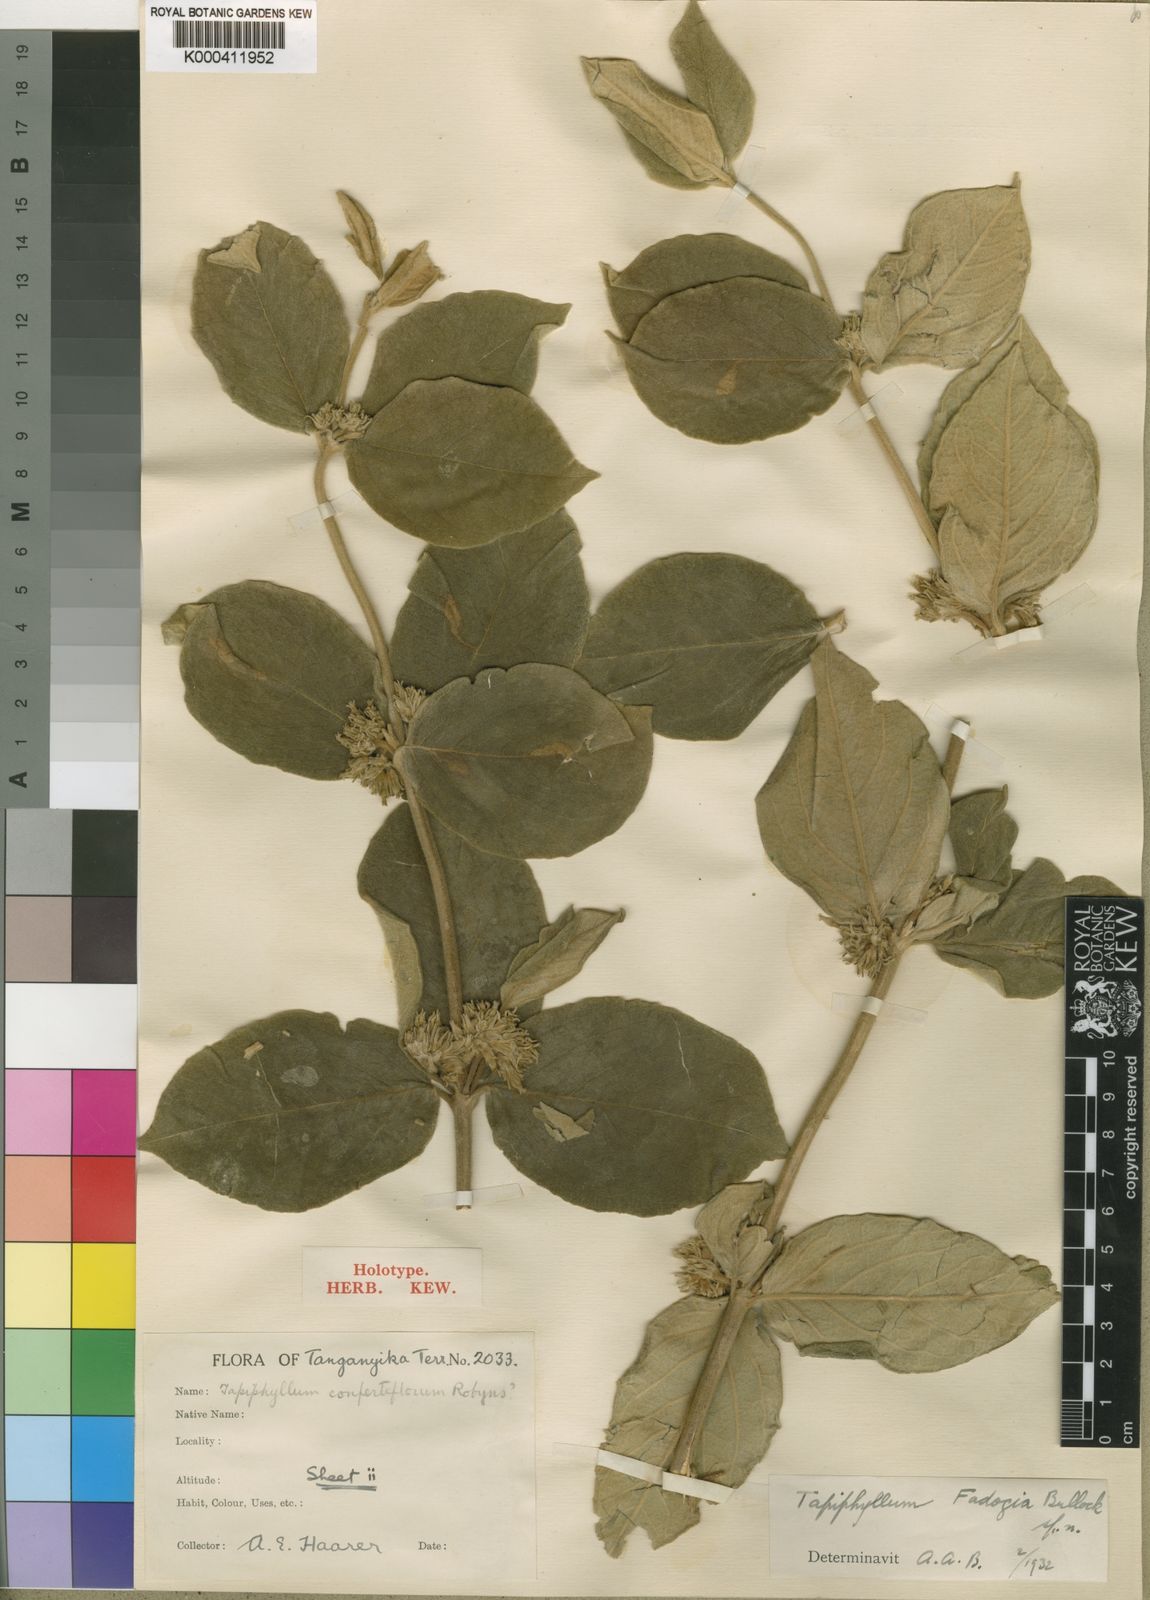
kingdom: Plantae
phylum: Tracheophyta
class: Magnoliopsida
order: Gentianales
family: Rubiaceae
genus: Vangueria
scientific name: Vangueria discolor
